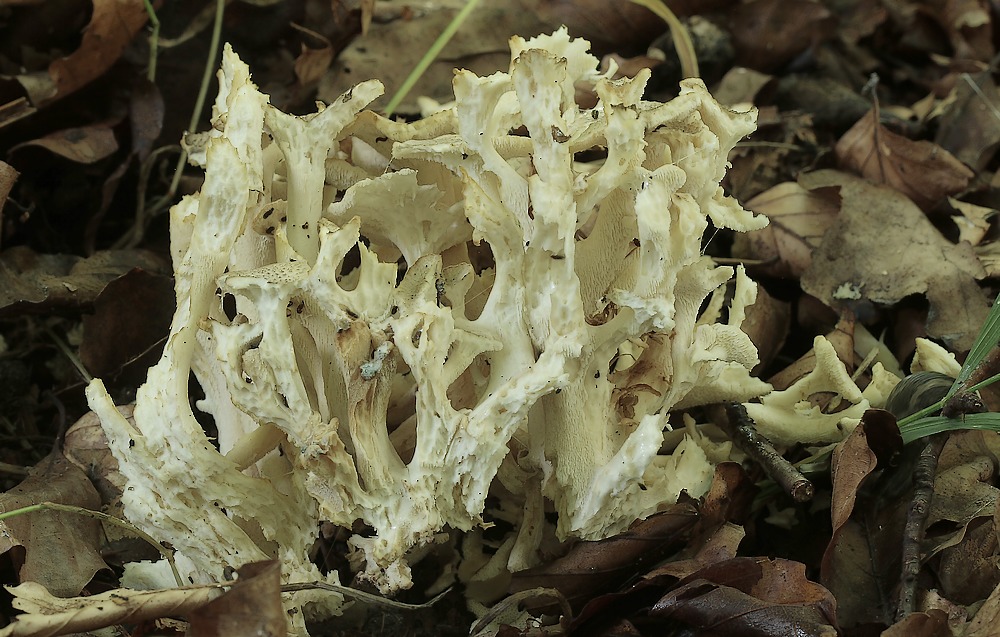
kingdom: Fungi
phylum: Basidiomycota
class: Agaricomycetes
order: Polyporales
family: Polyporaceae
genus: Polyporus
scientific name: Polyporus umbellatus
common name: skærmformet stilkporesvamp
